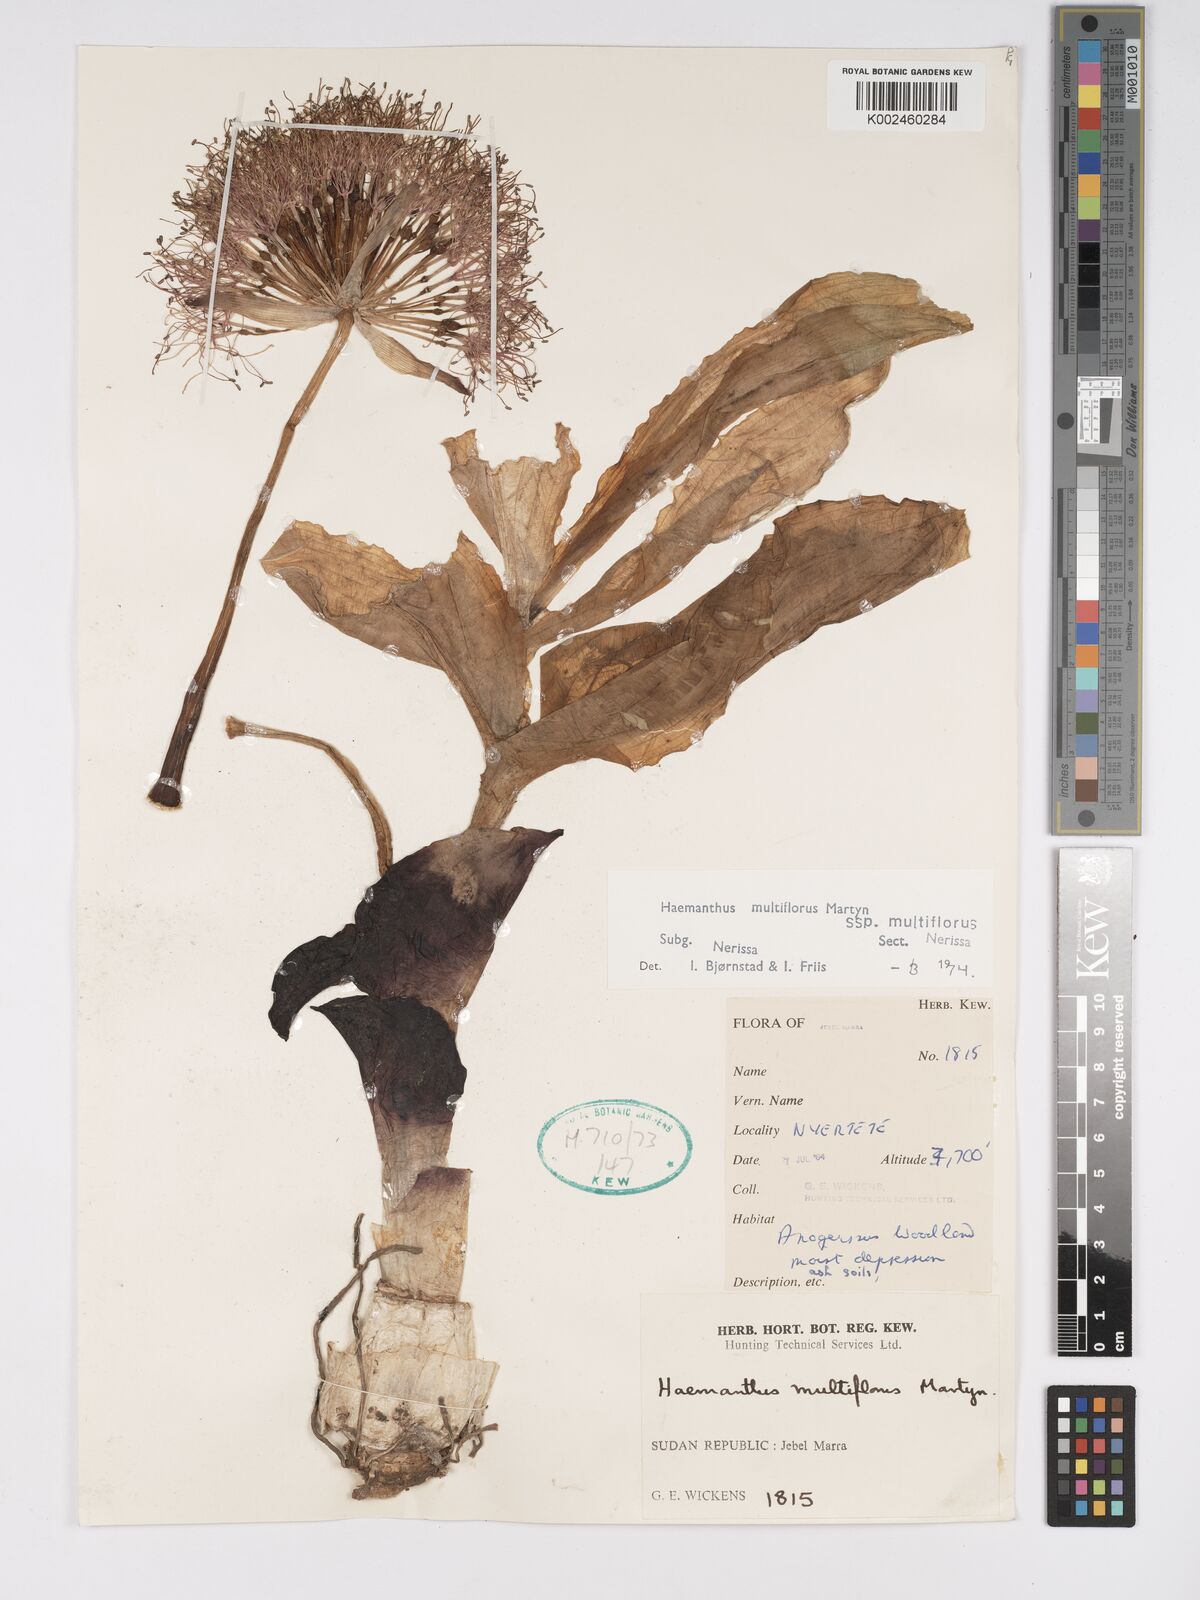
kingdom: Plantae
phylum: Tracheophyta
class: Liliopsida
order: Asparagales
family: Amaryllidaceae
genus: Scadoxus
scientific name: Scadoxus multiflorus
